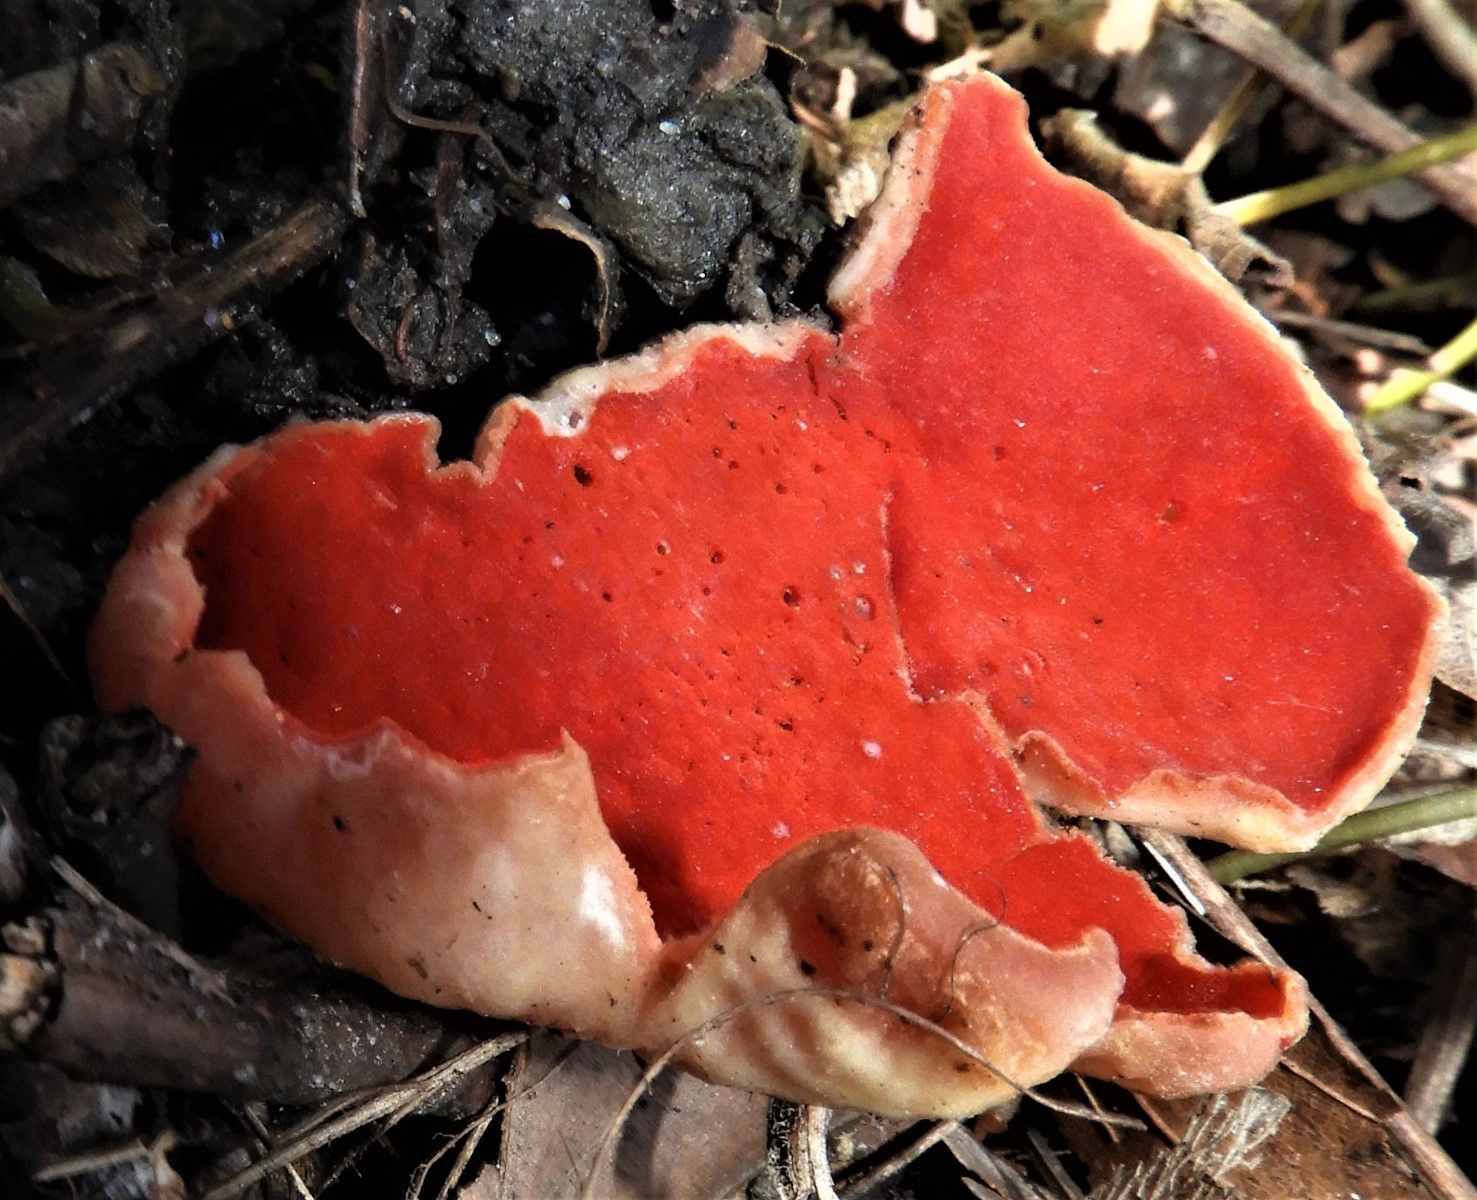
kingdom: Fungi
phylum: Ascomycota
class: Pezizomycetes
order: Pezizales
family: Sarcoscyphaceae
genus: Sarcoscypha
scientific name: Sarcoscypha austriaca
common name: krølhåret pragtbæger
